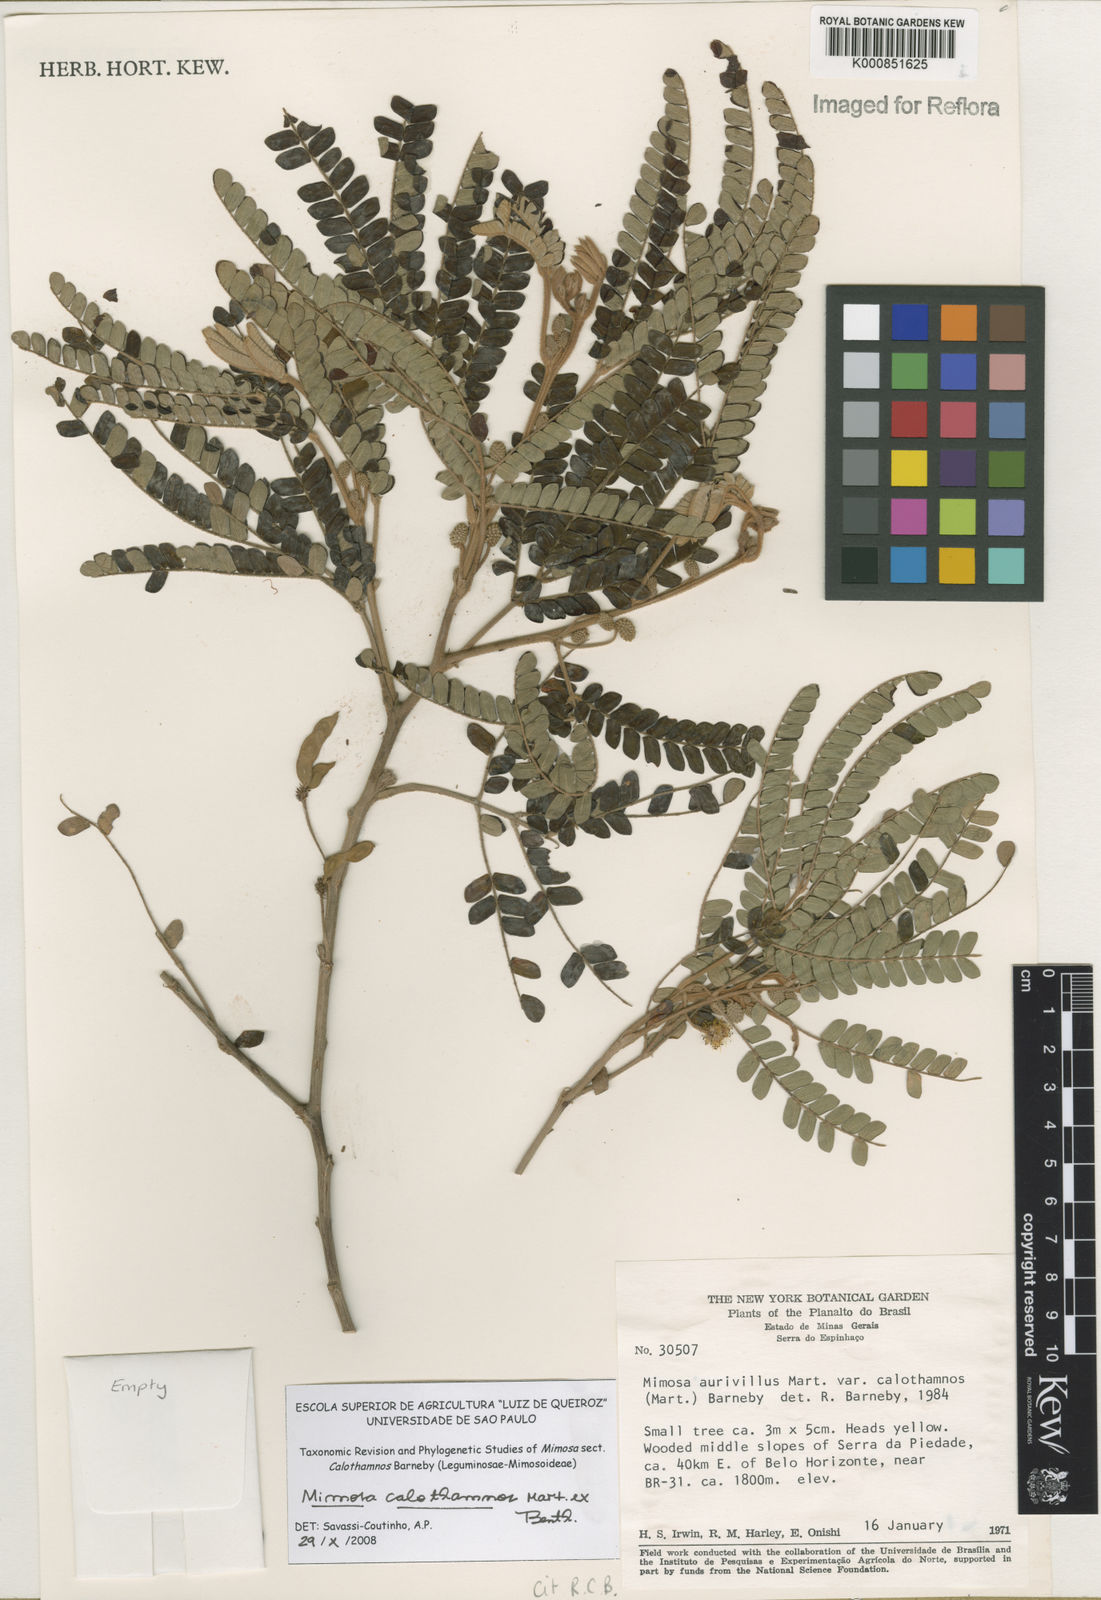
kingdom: Plantae
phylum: Tracheophyta
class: Magnoliopsida
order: Fabales
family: Fabaceae
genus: Mimosa
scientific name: Mimosa aurivillus
